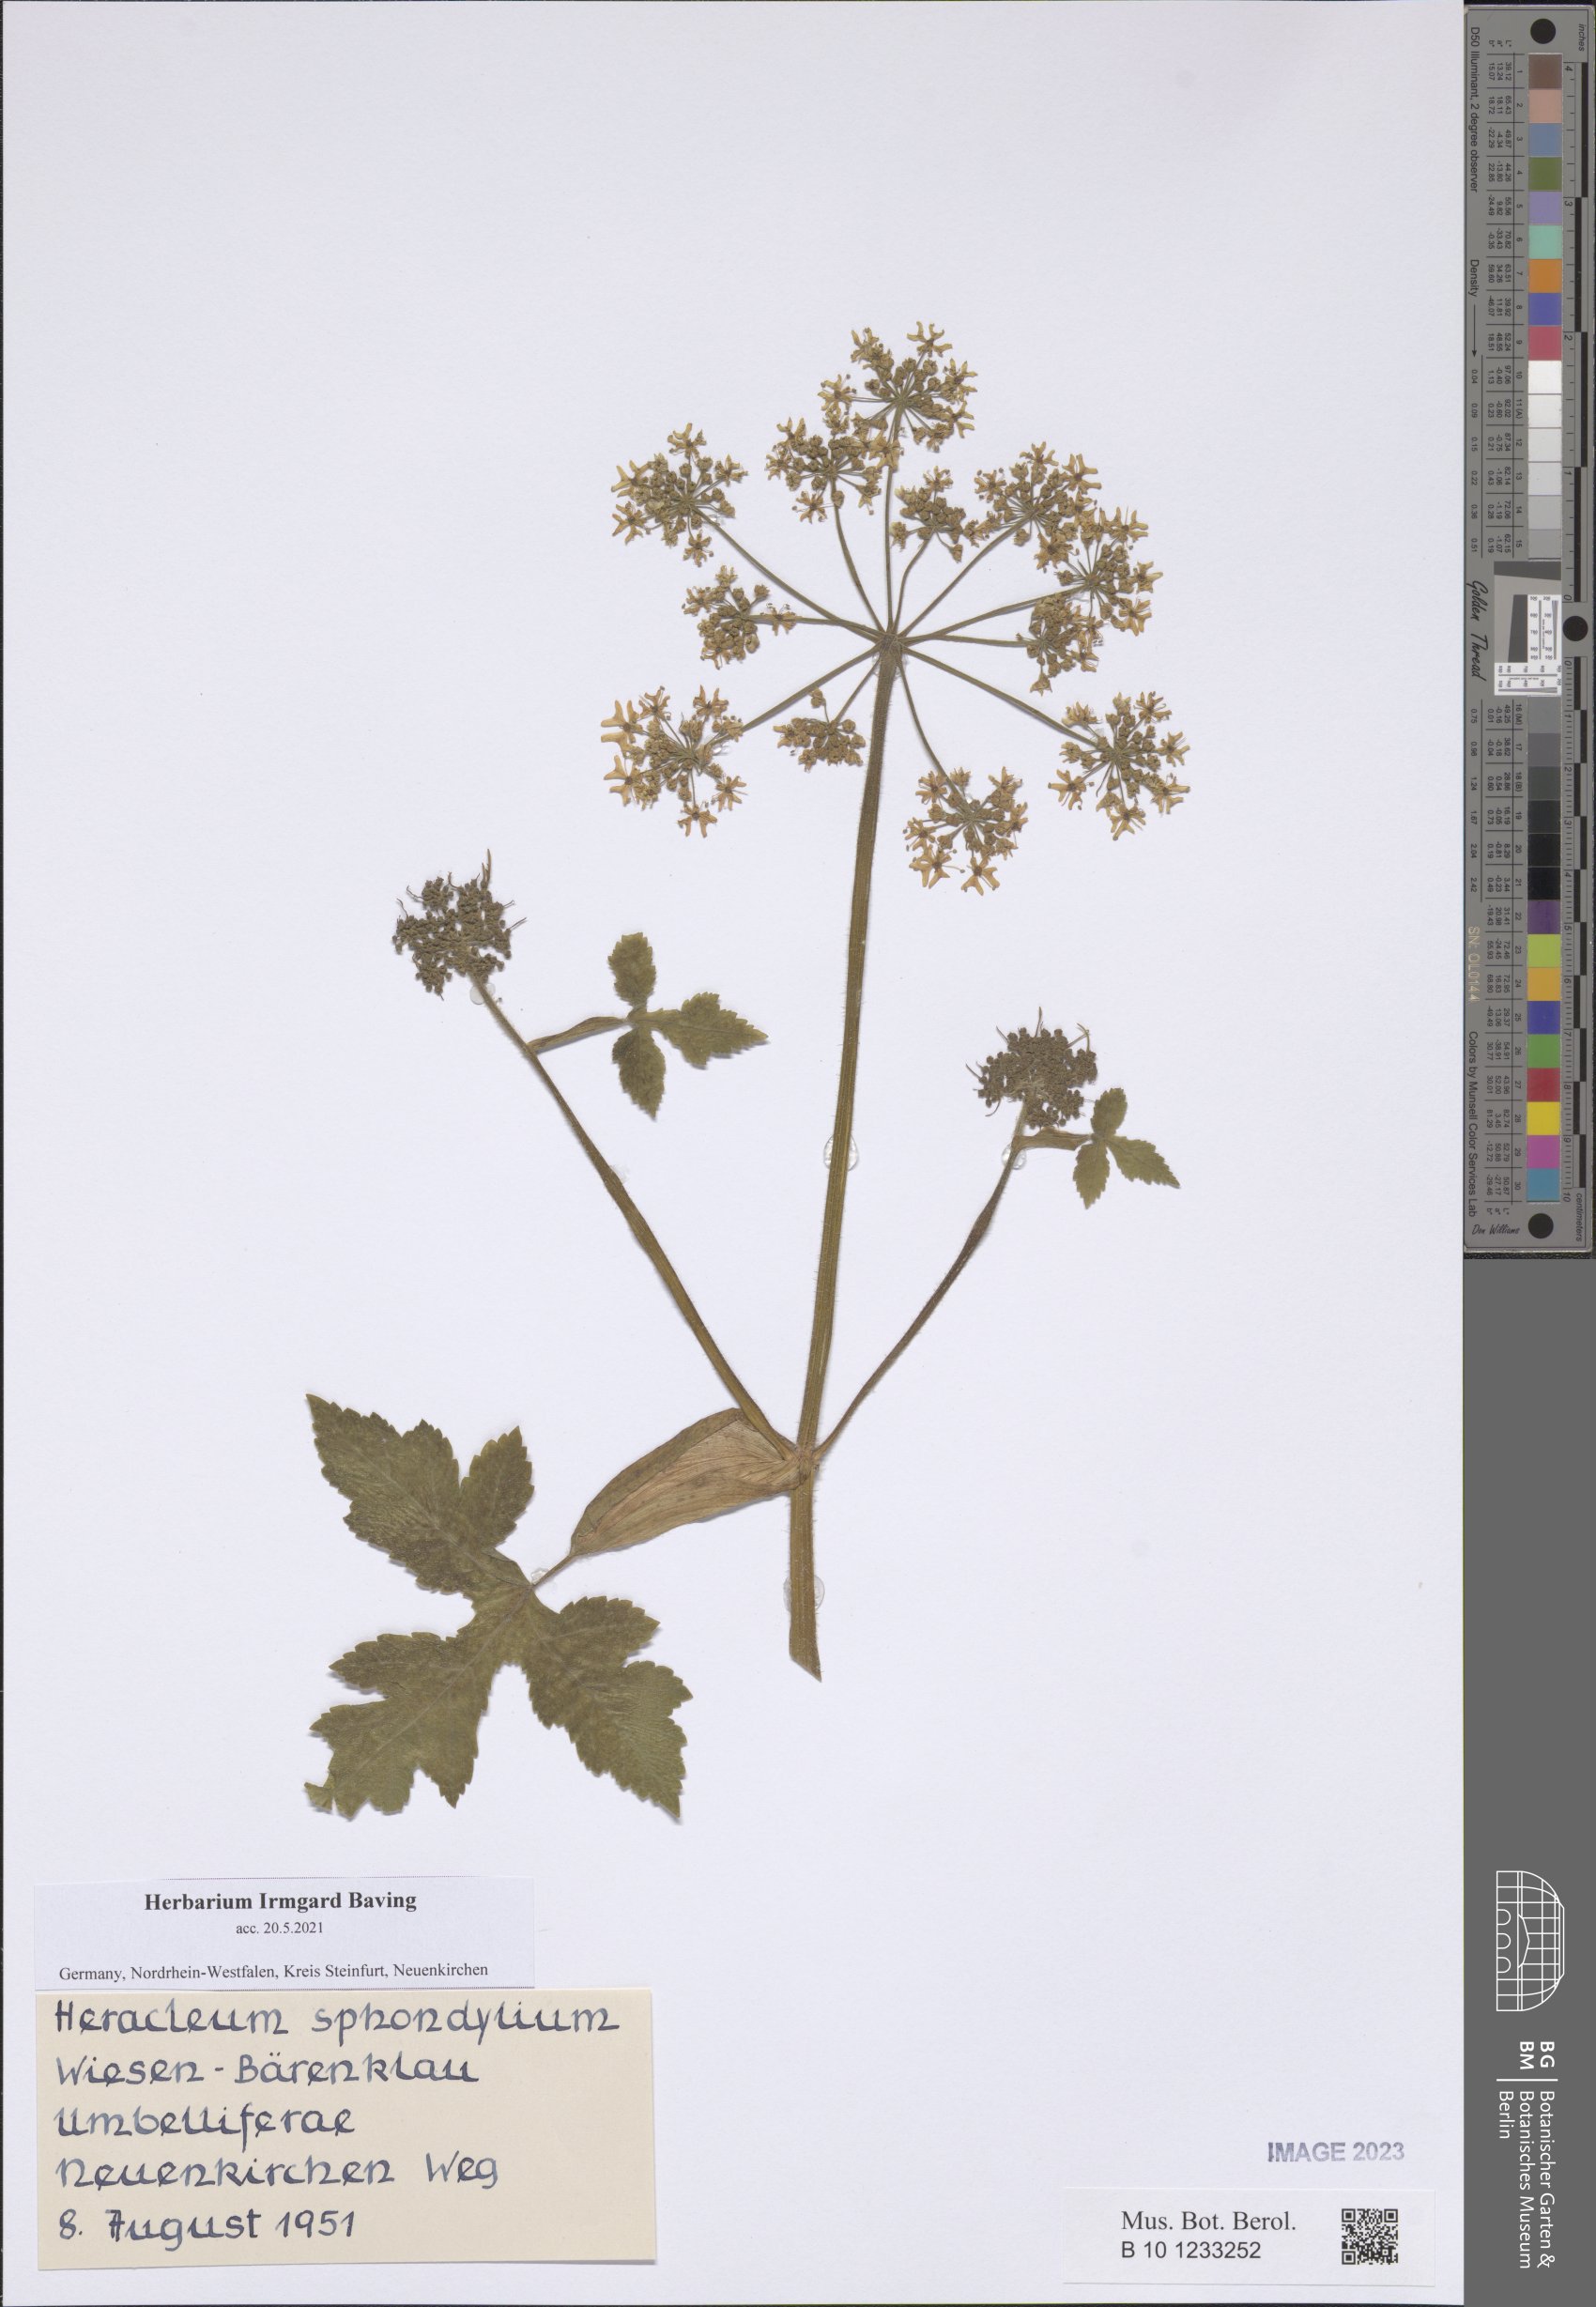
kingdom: Plantae
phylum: Tracheophyta
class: Magnoliopsida
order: Apiales
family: Apiaceae
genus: Heracleum
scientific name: Heracleum sphondylium
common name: Hogweed
